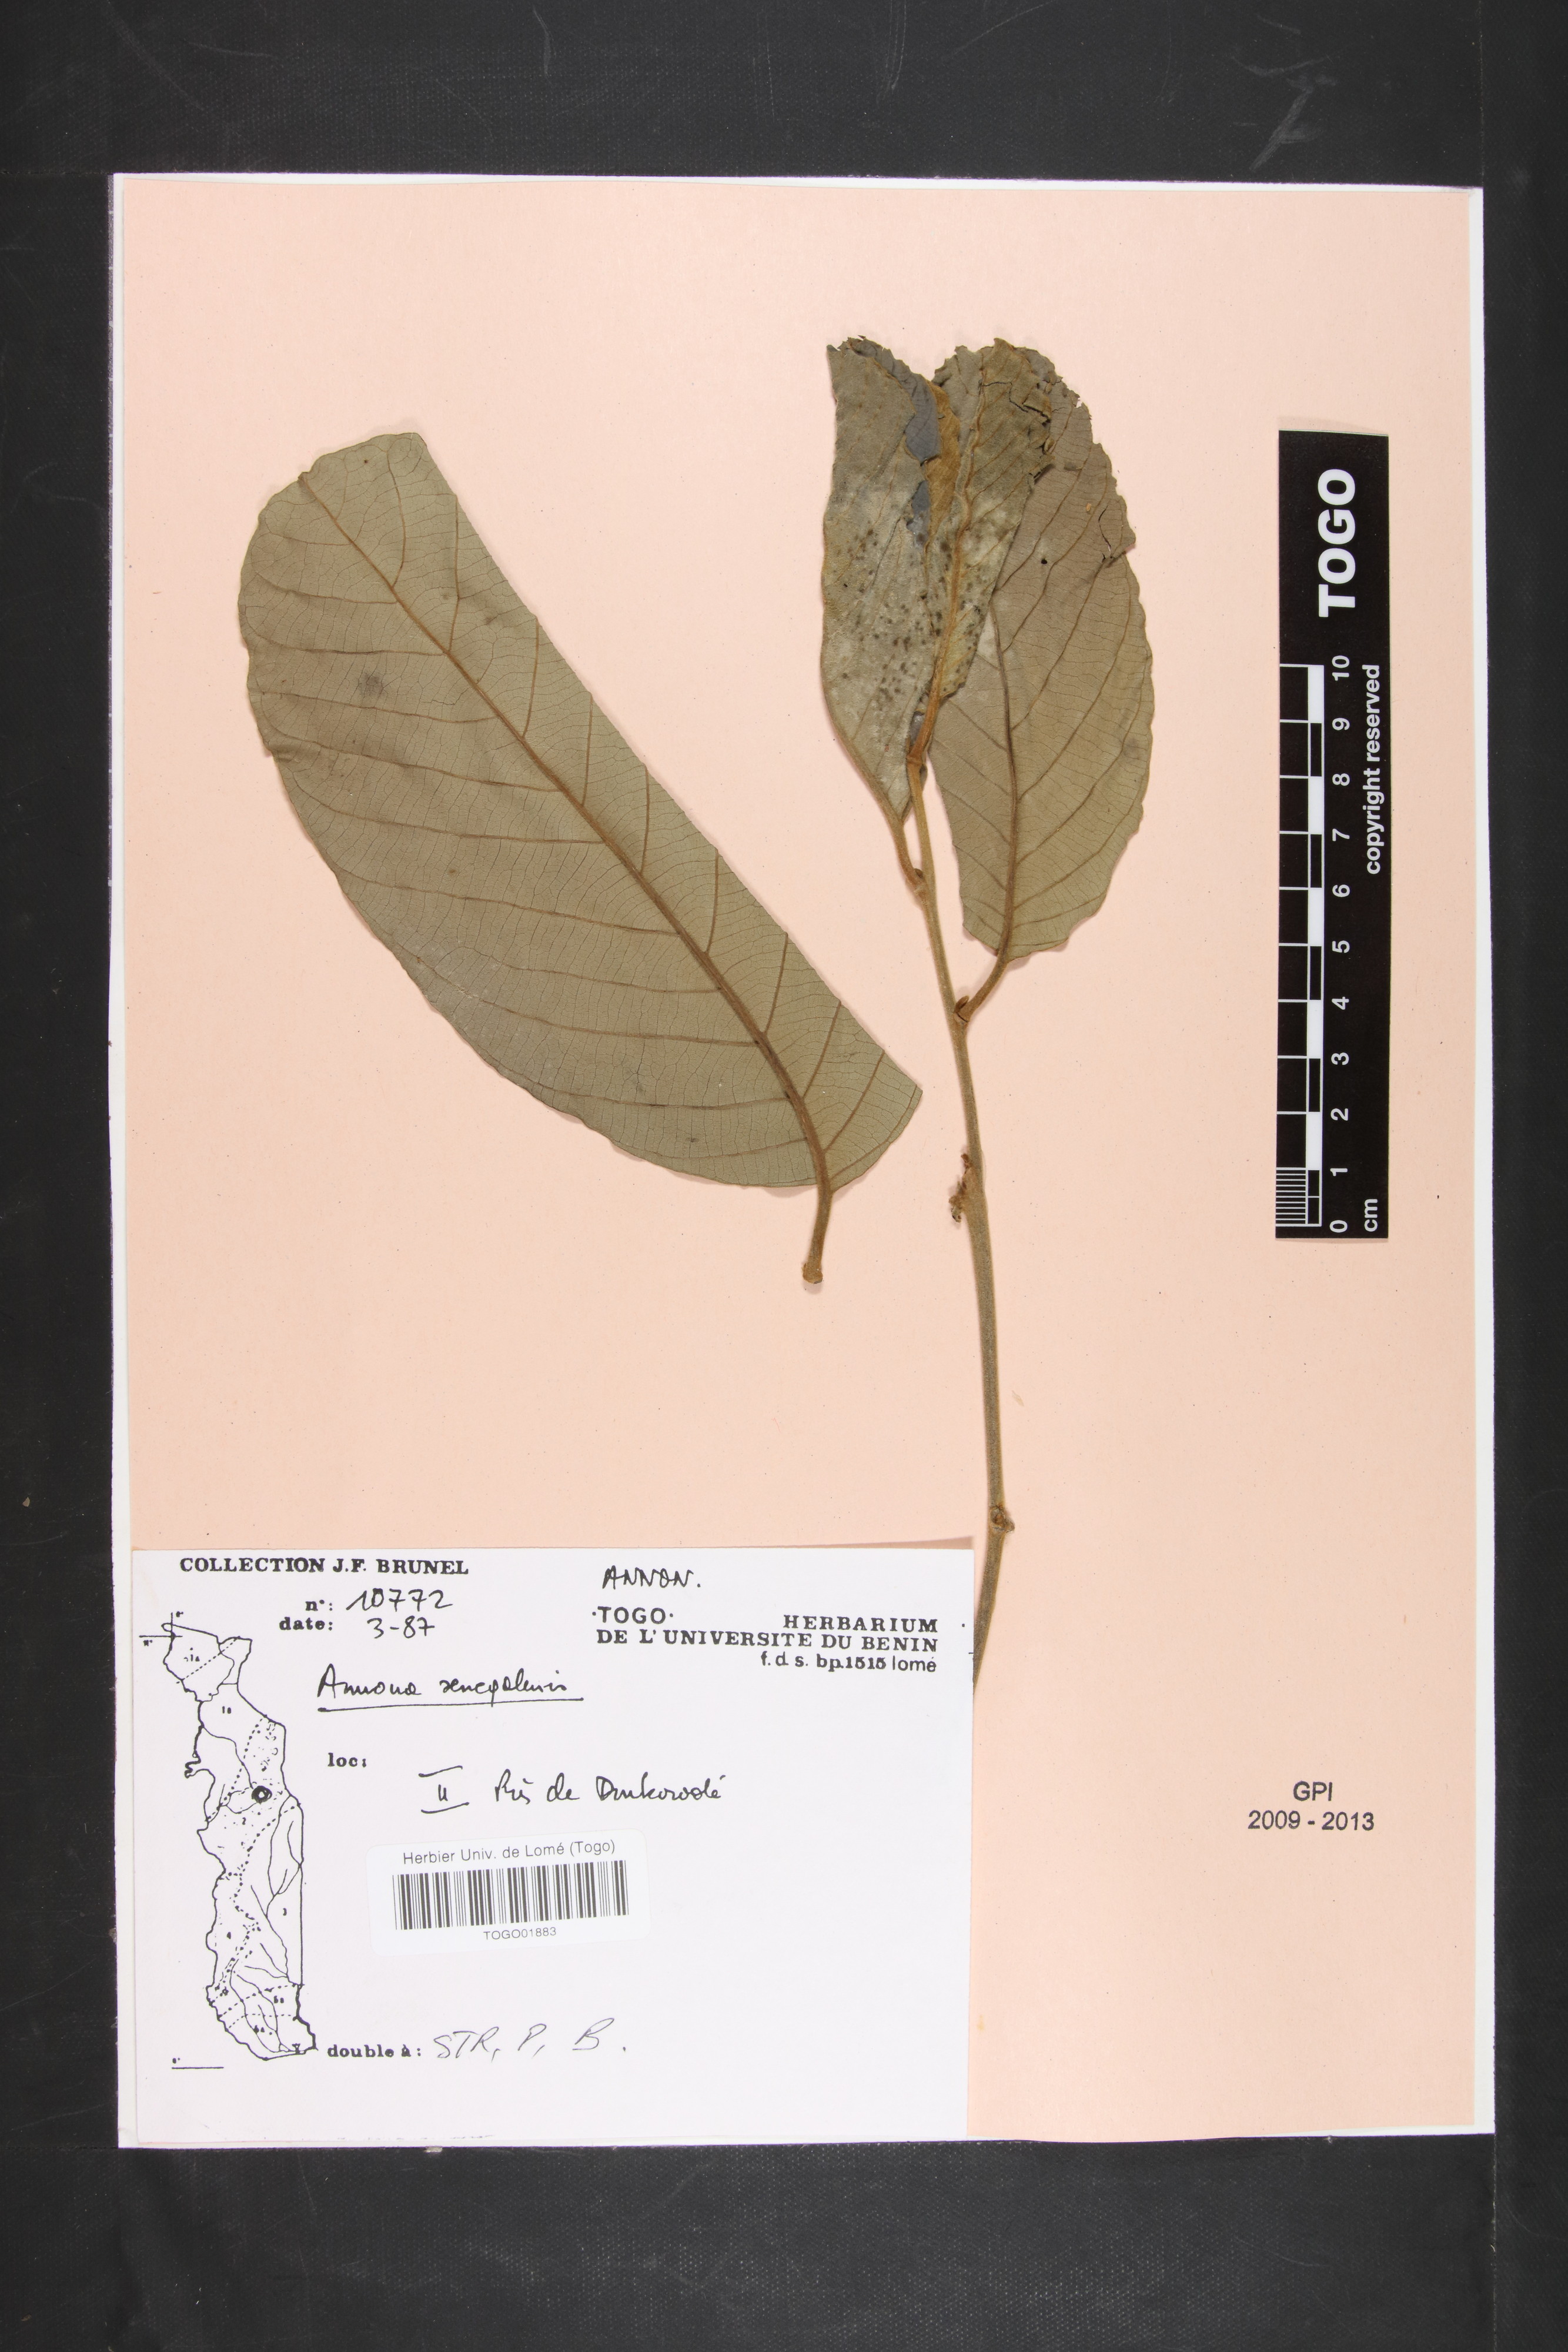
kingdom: Plantae
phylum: Tracheophyta
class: Magnoliopsida
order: Magnoliales
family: Annonaceae
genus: Annona
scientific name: Annona senegalensis
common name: Wild custard-apple
